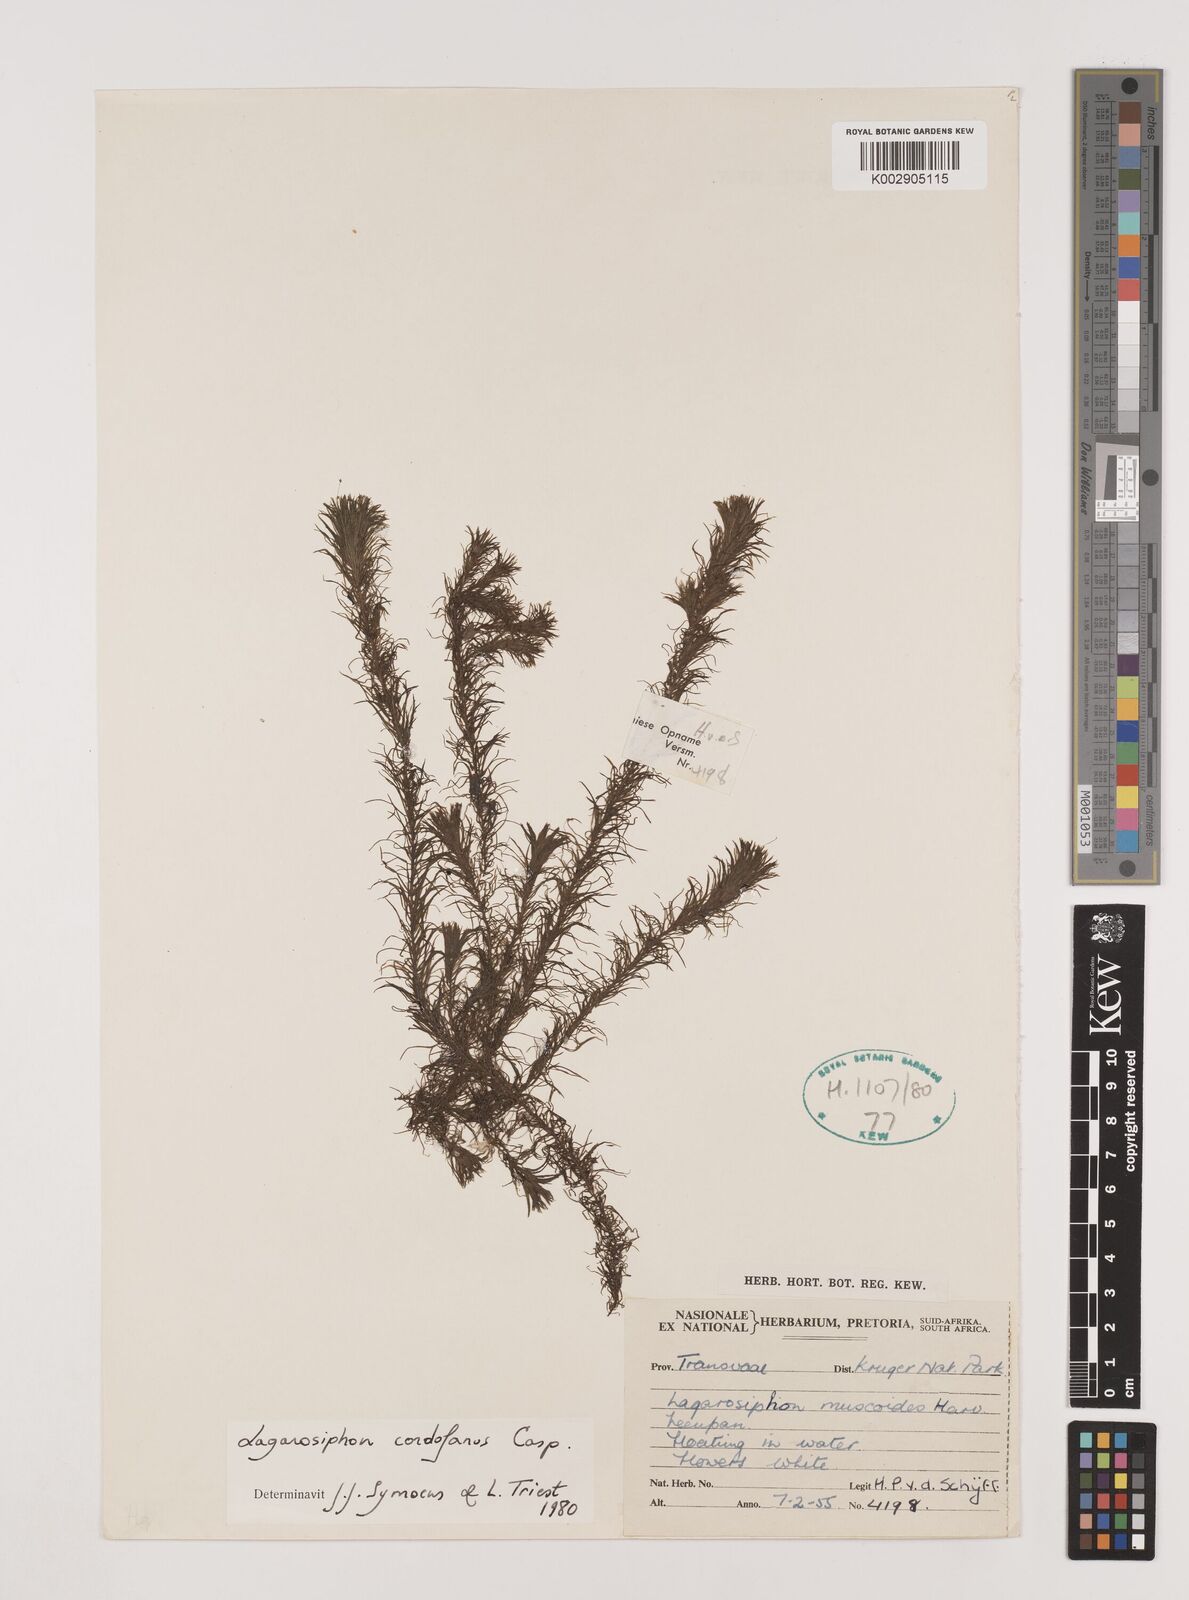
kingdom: Plantae
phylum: Tracheophyta
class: Liliopsida
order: Alismatales
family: Hydrocharitaceae
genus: Lagarosiphon
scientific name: Lagarosiphon cordofanus
